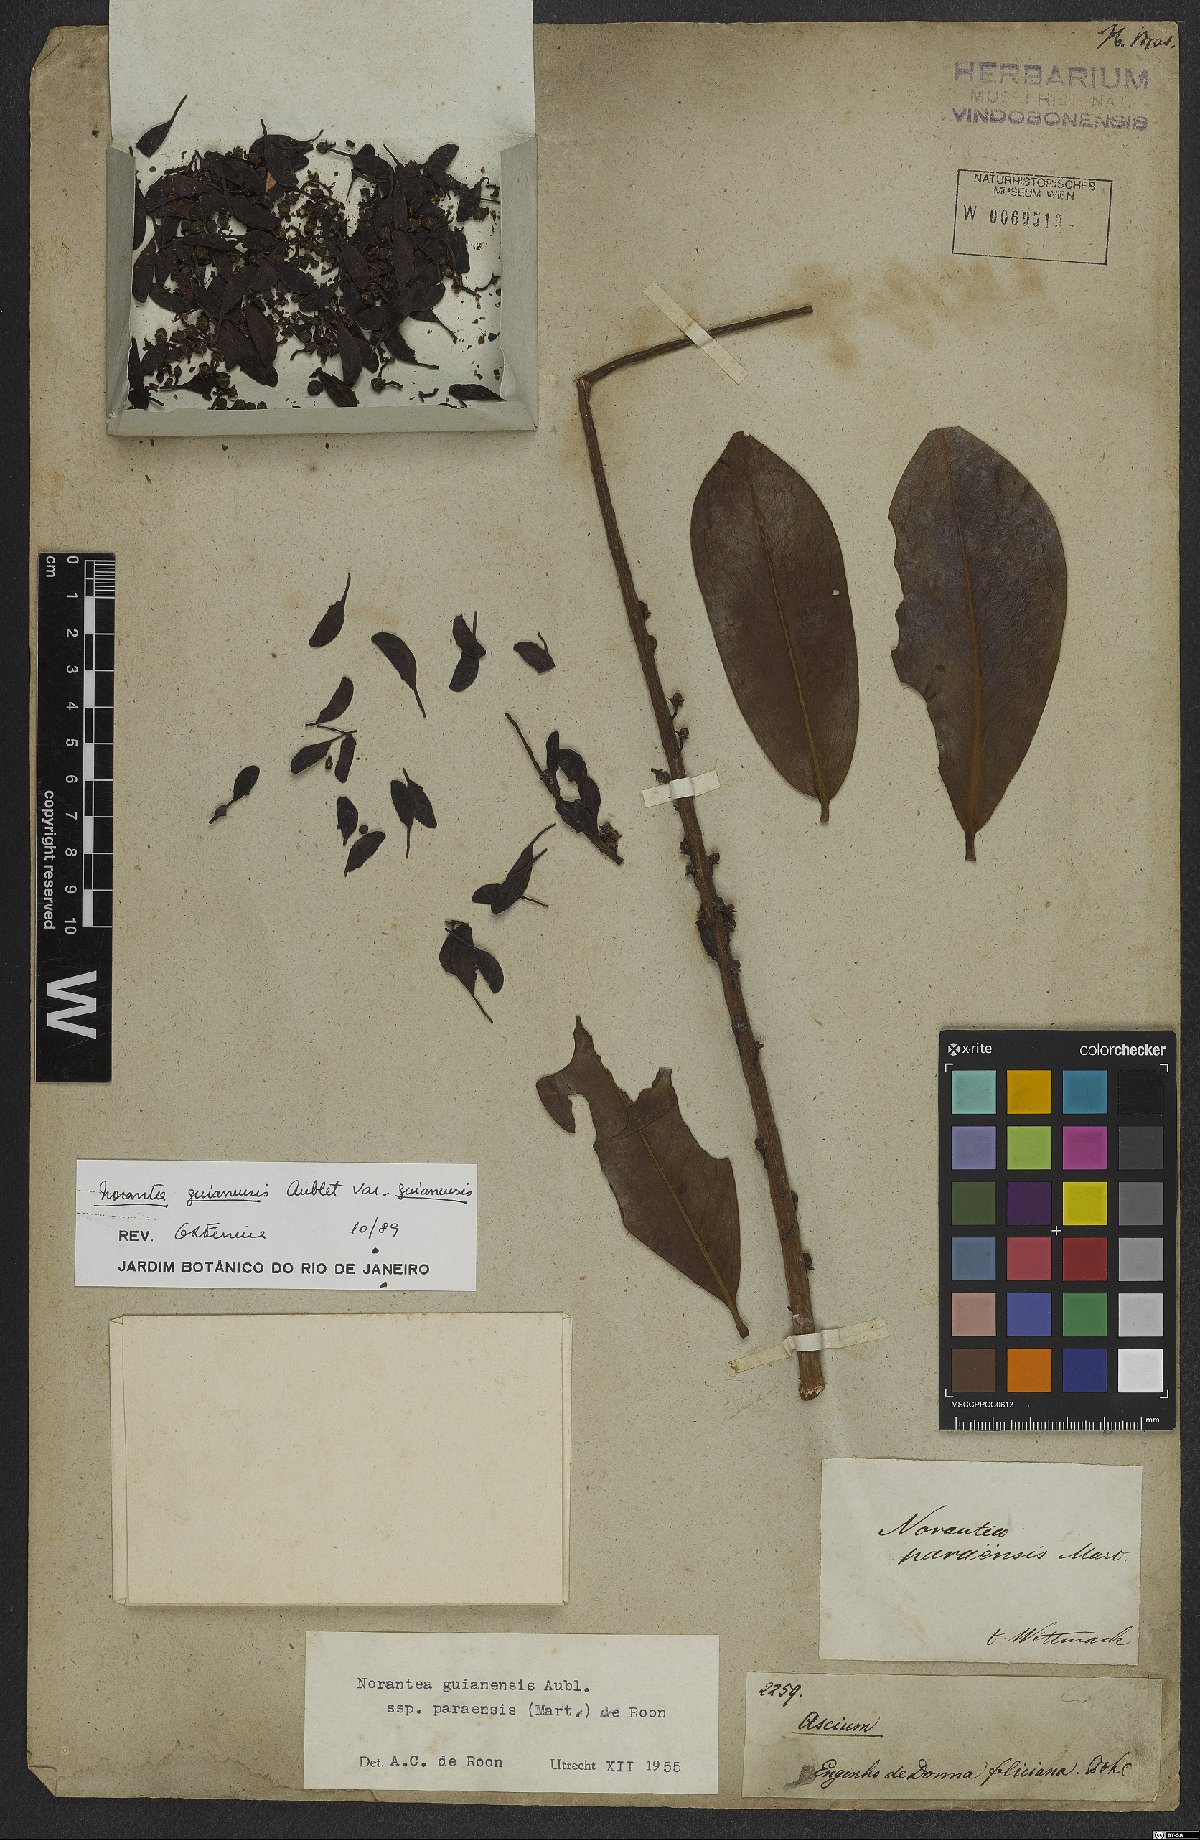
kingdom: Plantae
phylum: Tracheophyta
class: Magnoliopsida
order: Ericales
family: Marcgraviaceae
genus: Norantea
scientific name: Norantea guianensis
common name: Red hot poker vine
